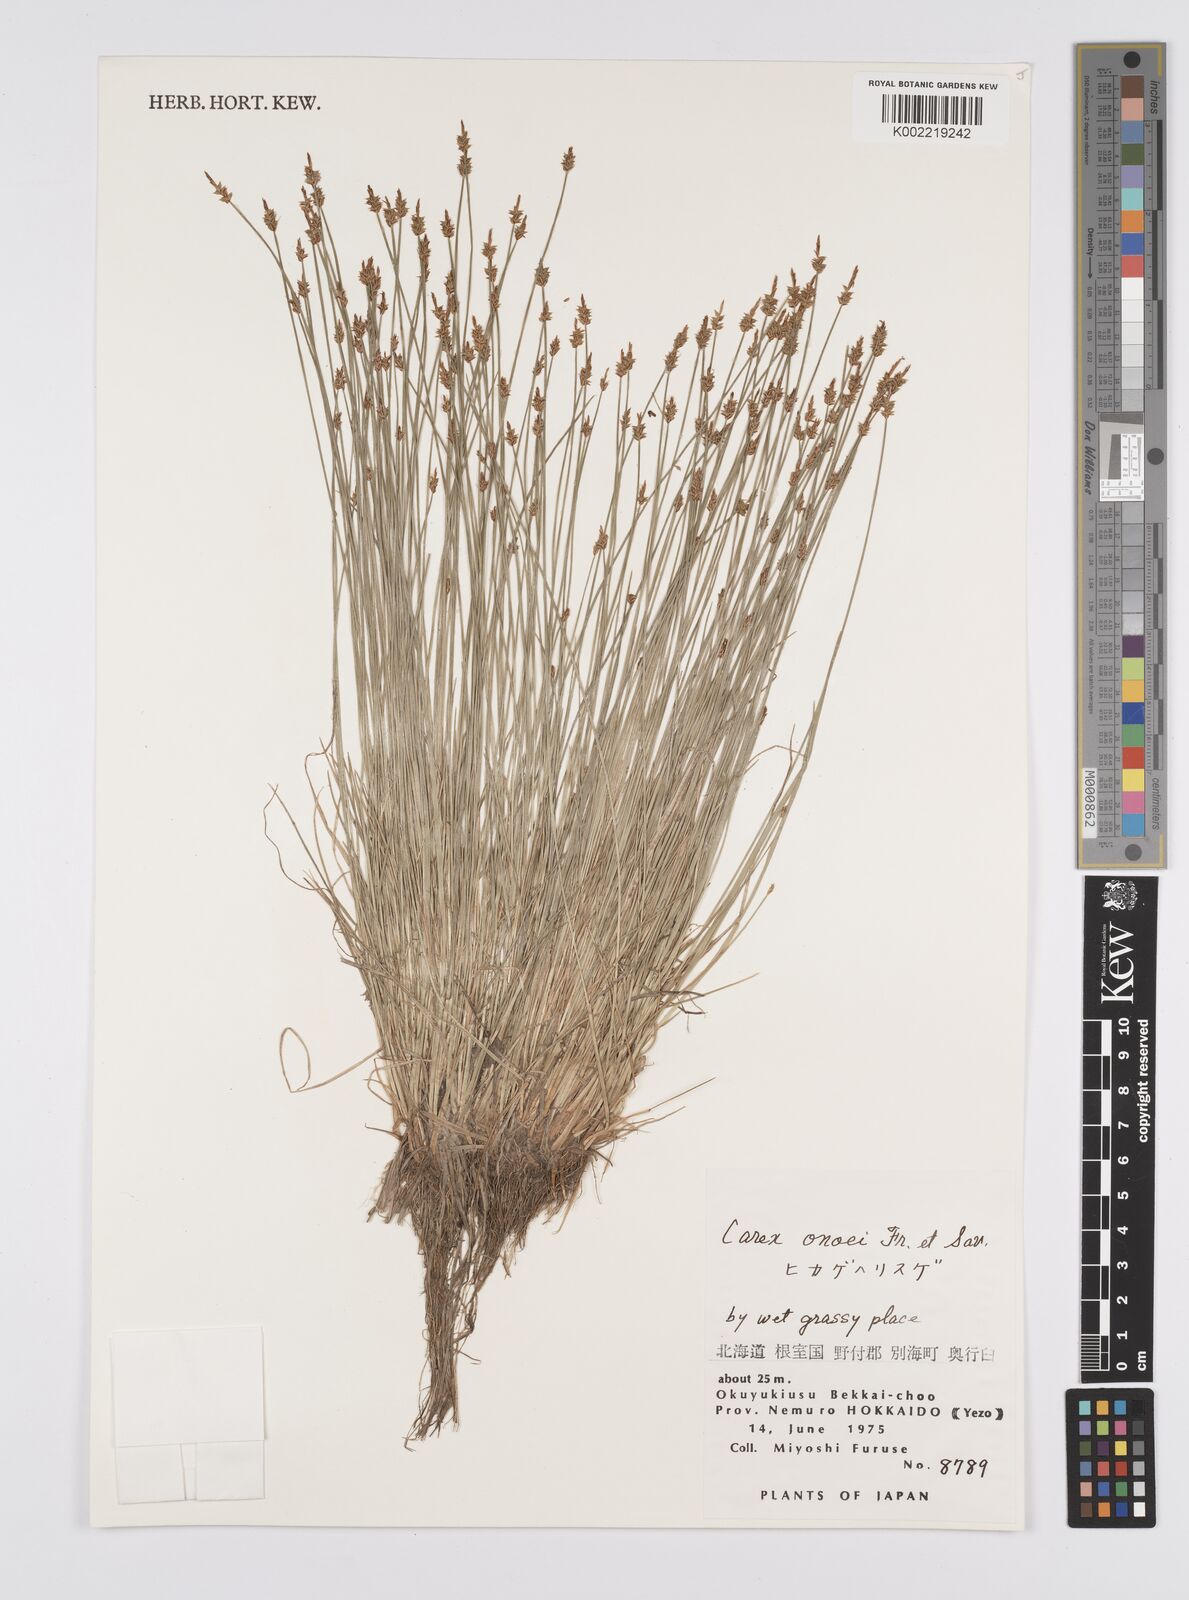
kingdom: Plantae
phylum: Tracheophyta
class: Liliopsida
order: Poales
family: Cyperaceae
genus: Carex
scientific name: Carex onoei
